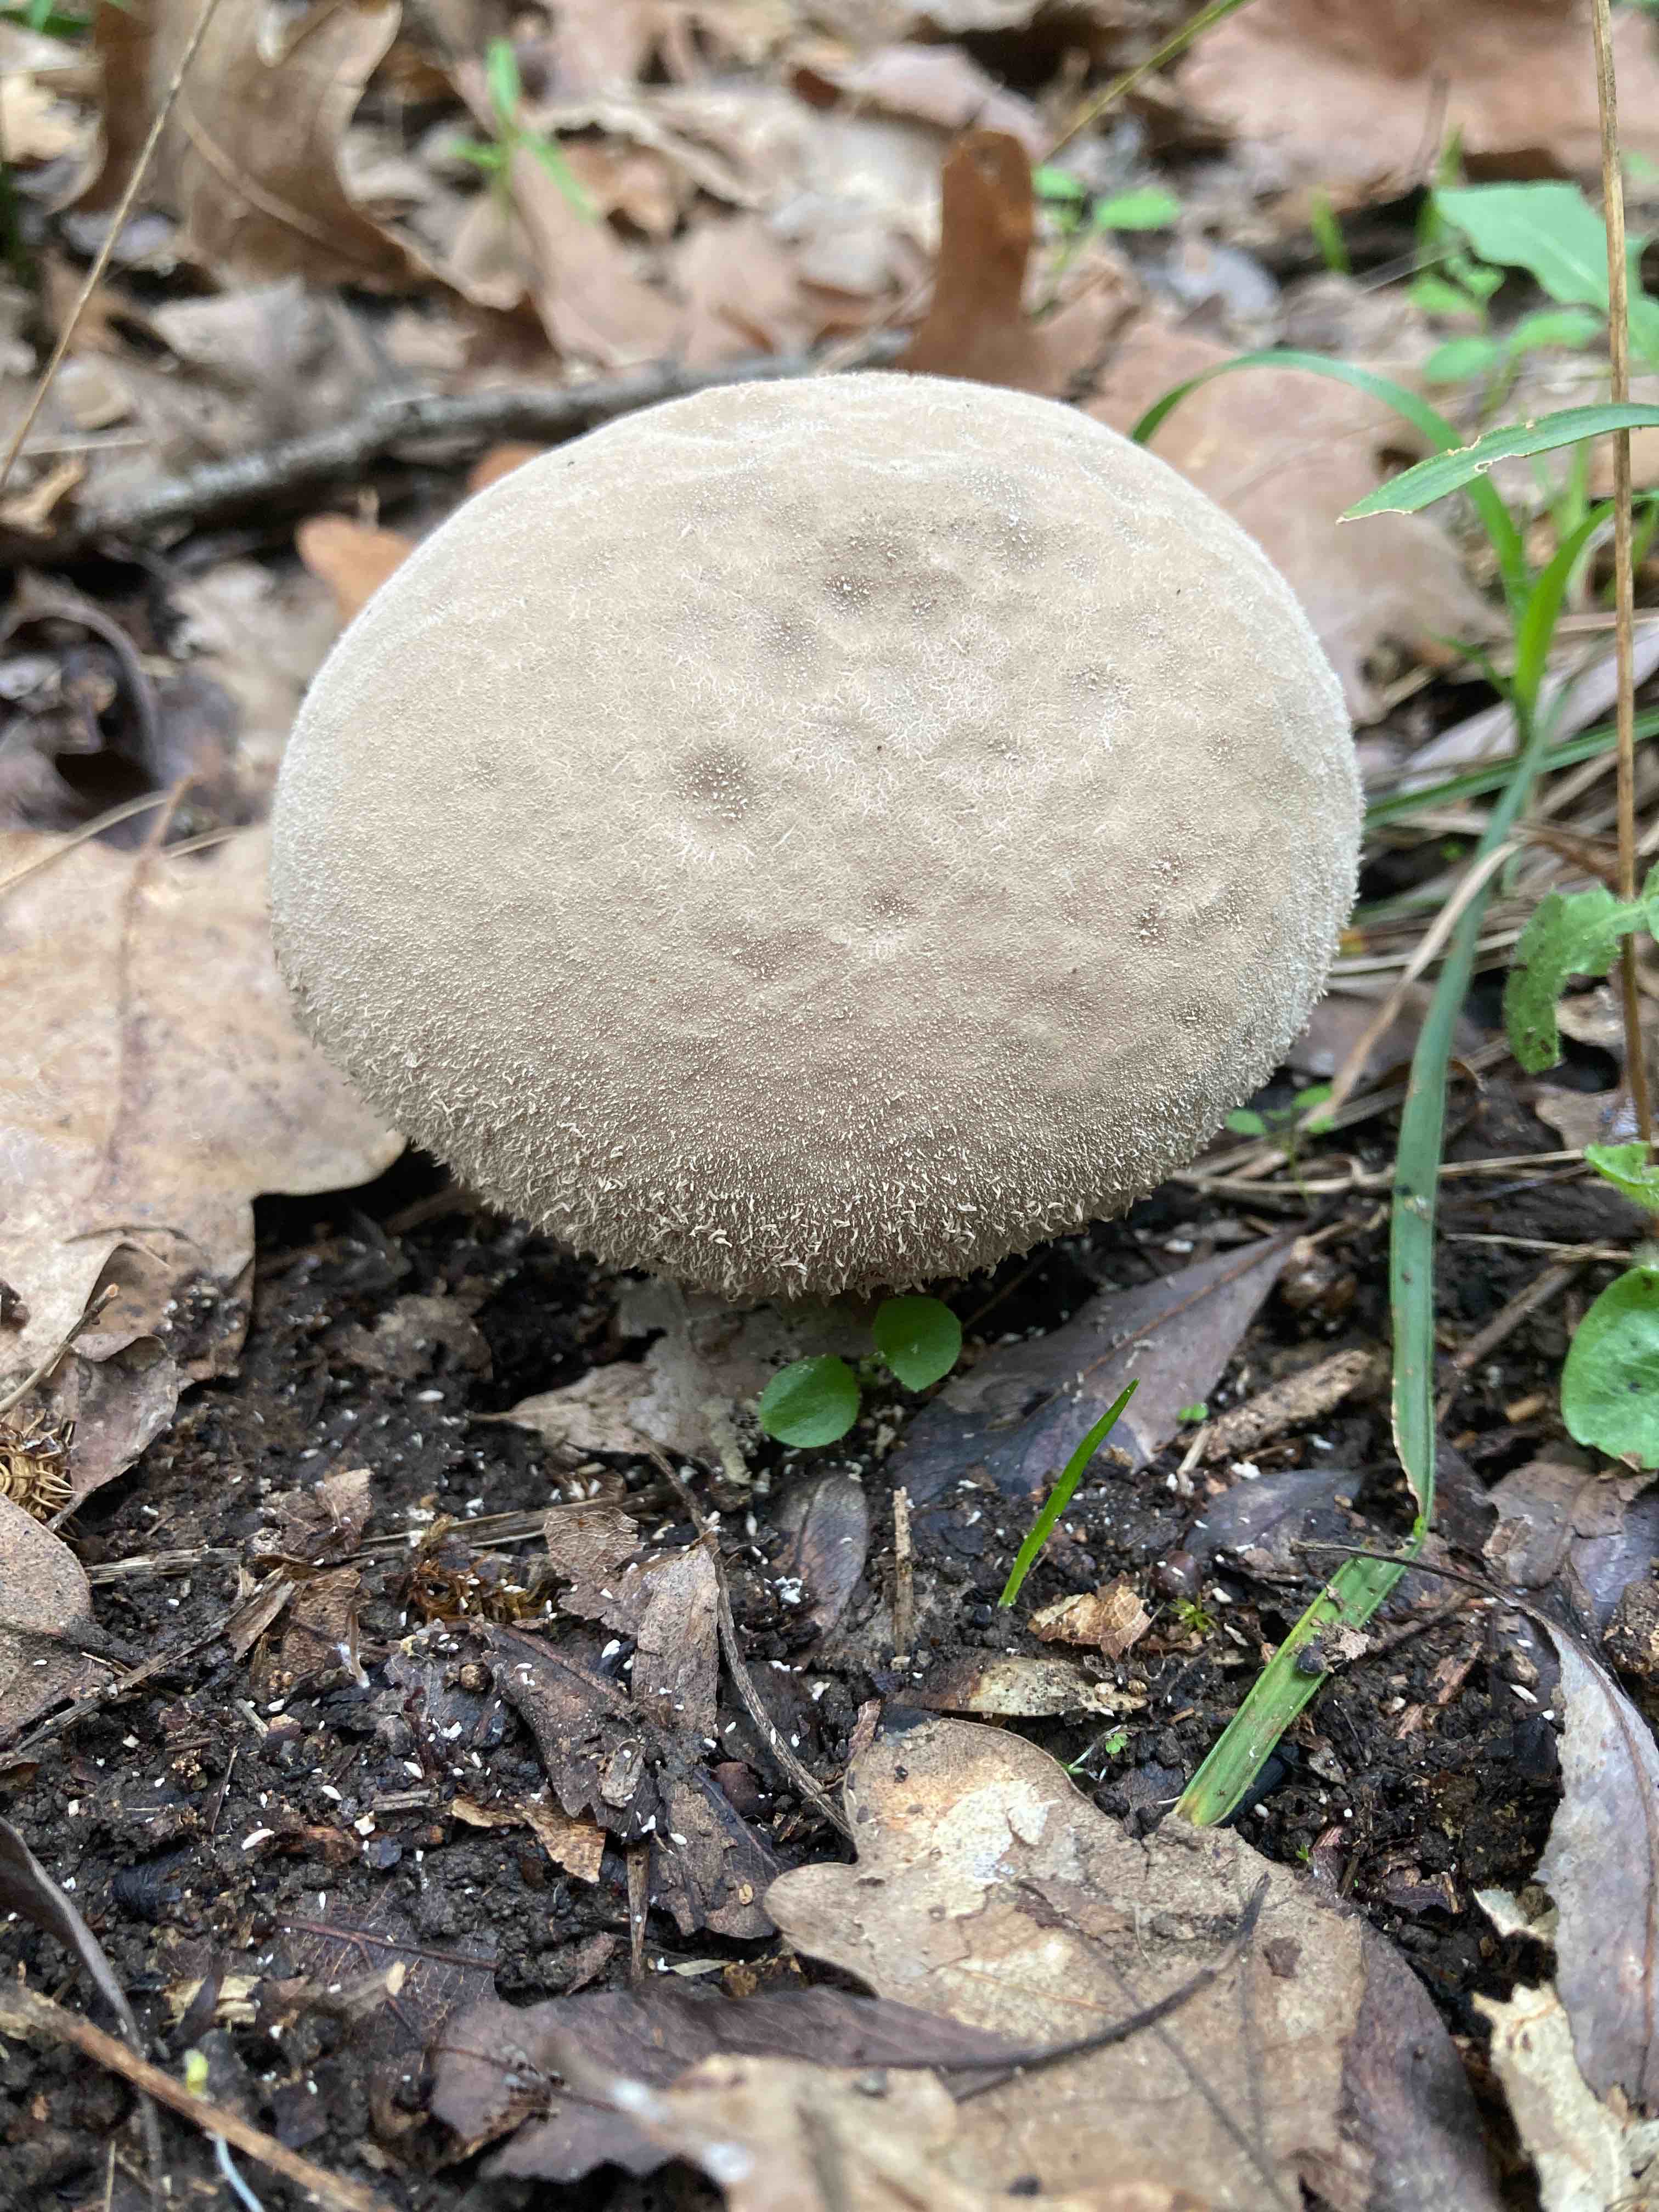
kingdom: Fungi
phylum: Basidiomycota
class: Agaricomycetes
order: Agaricales
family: Agaricaceae
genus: Lycoperdon
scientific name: Lycoperdon
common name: støvbold
